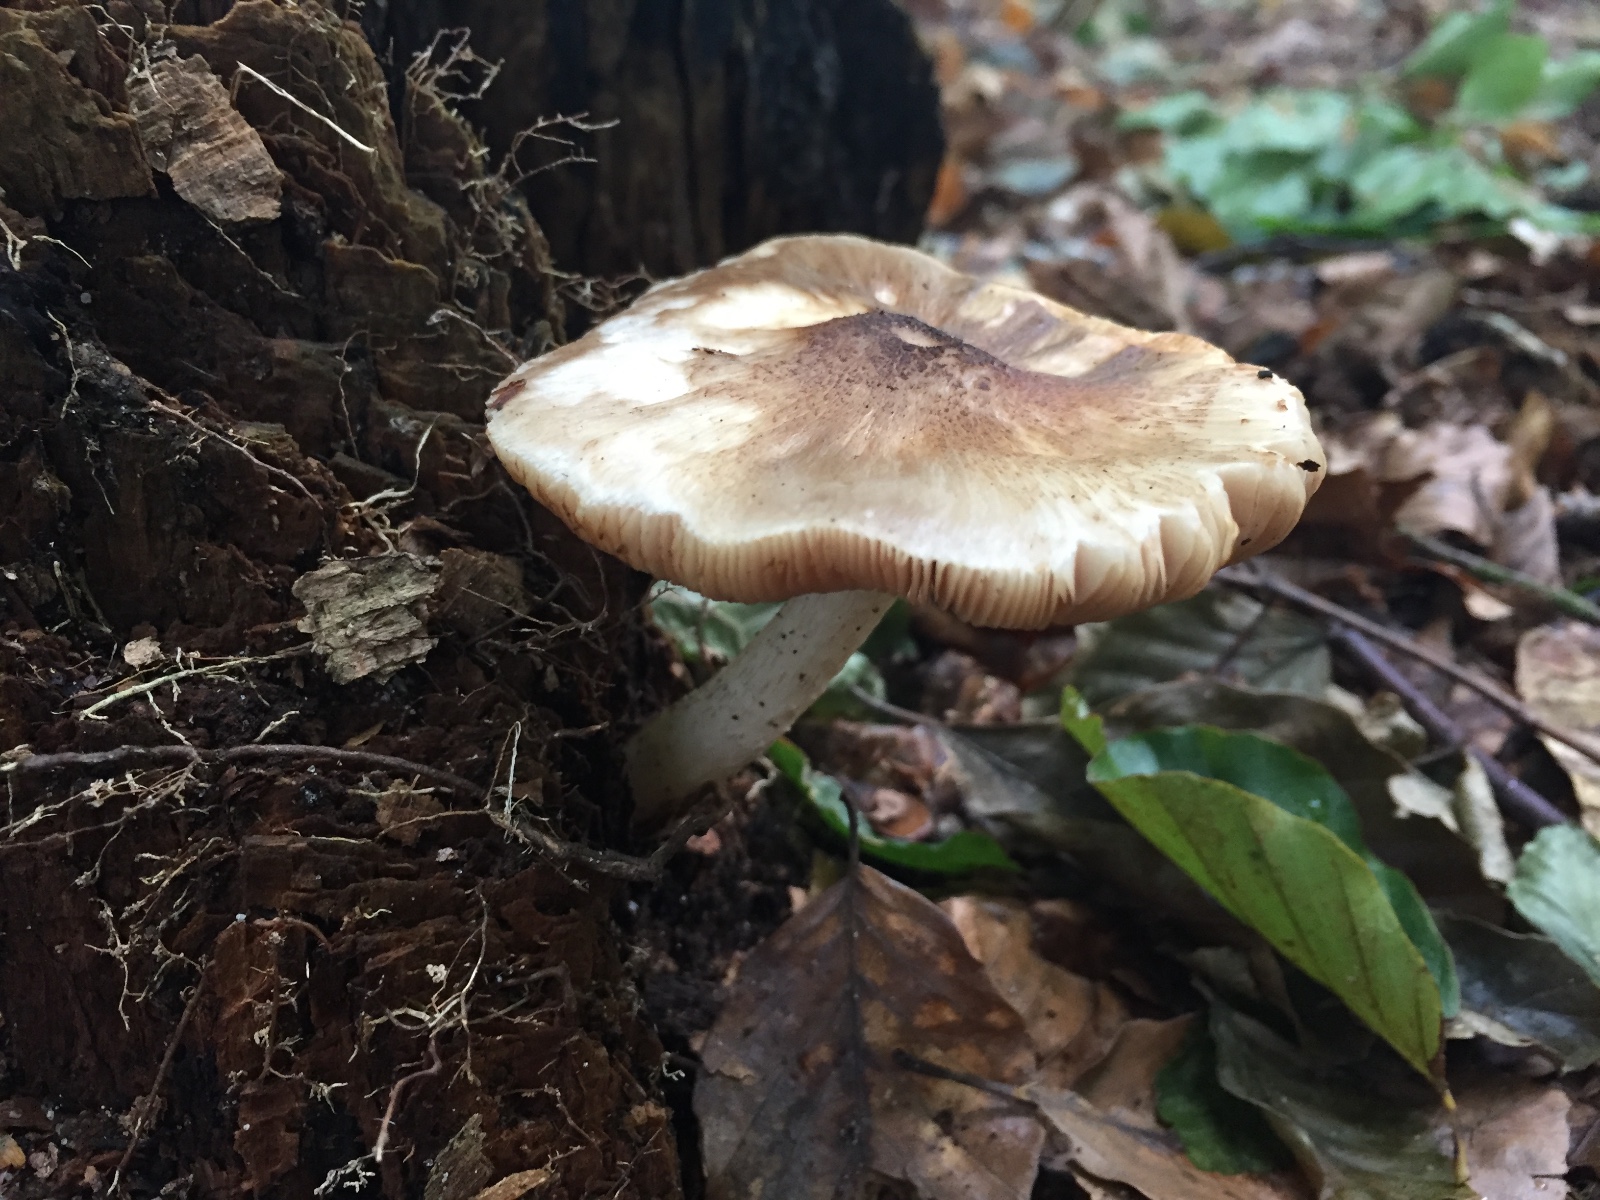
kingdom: Fungi
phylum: Basidiomycota
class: Agaricomycetes
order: Agaricales
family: Pluteaceae
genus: Pluteus
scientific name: Pluteus cervinus
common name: sodfarvet skærmhat
